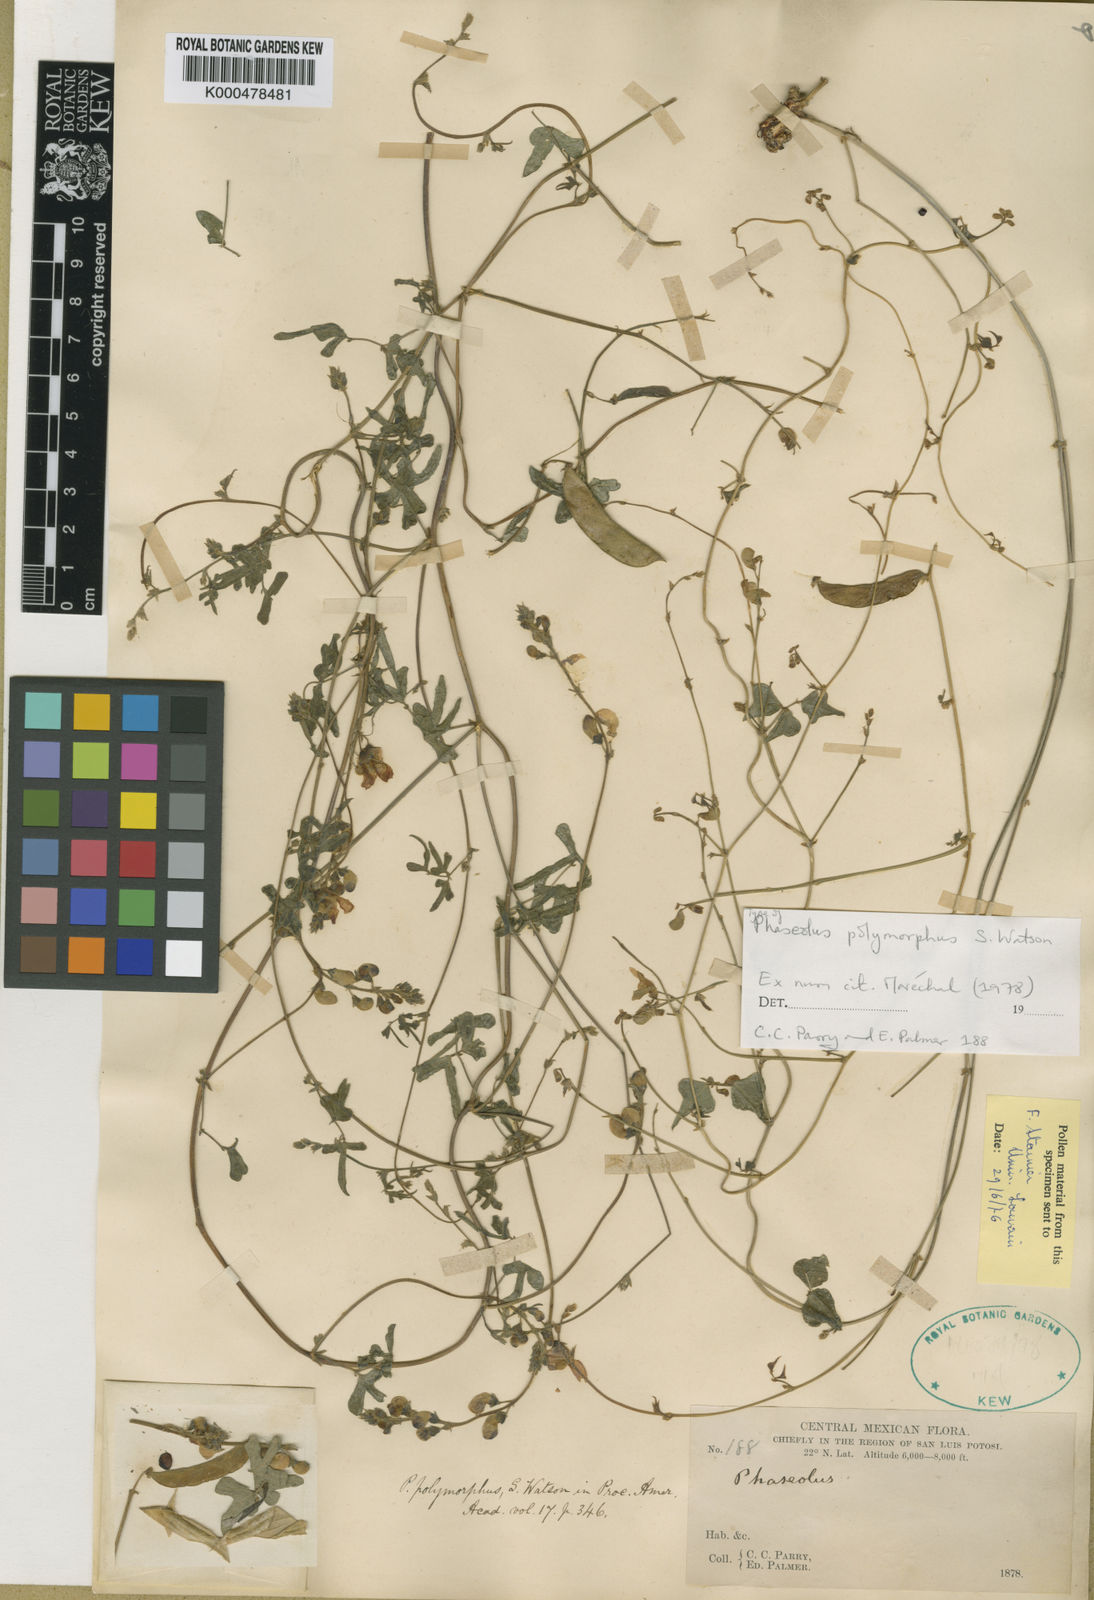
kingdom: Plantae
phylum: Tracheophyta
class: Magnoliopsida
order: Fabales
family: Fabaceae
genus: Phaseolus
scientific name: Phaseolus polymorphus
